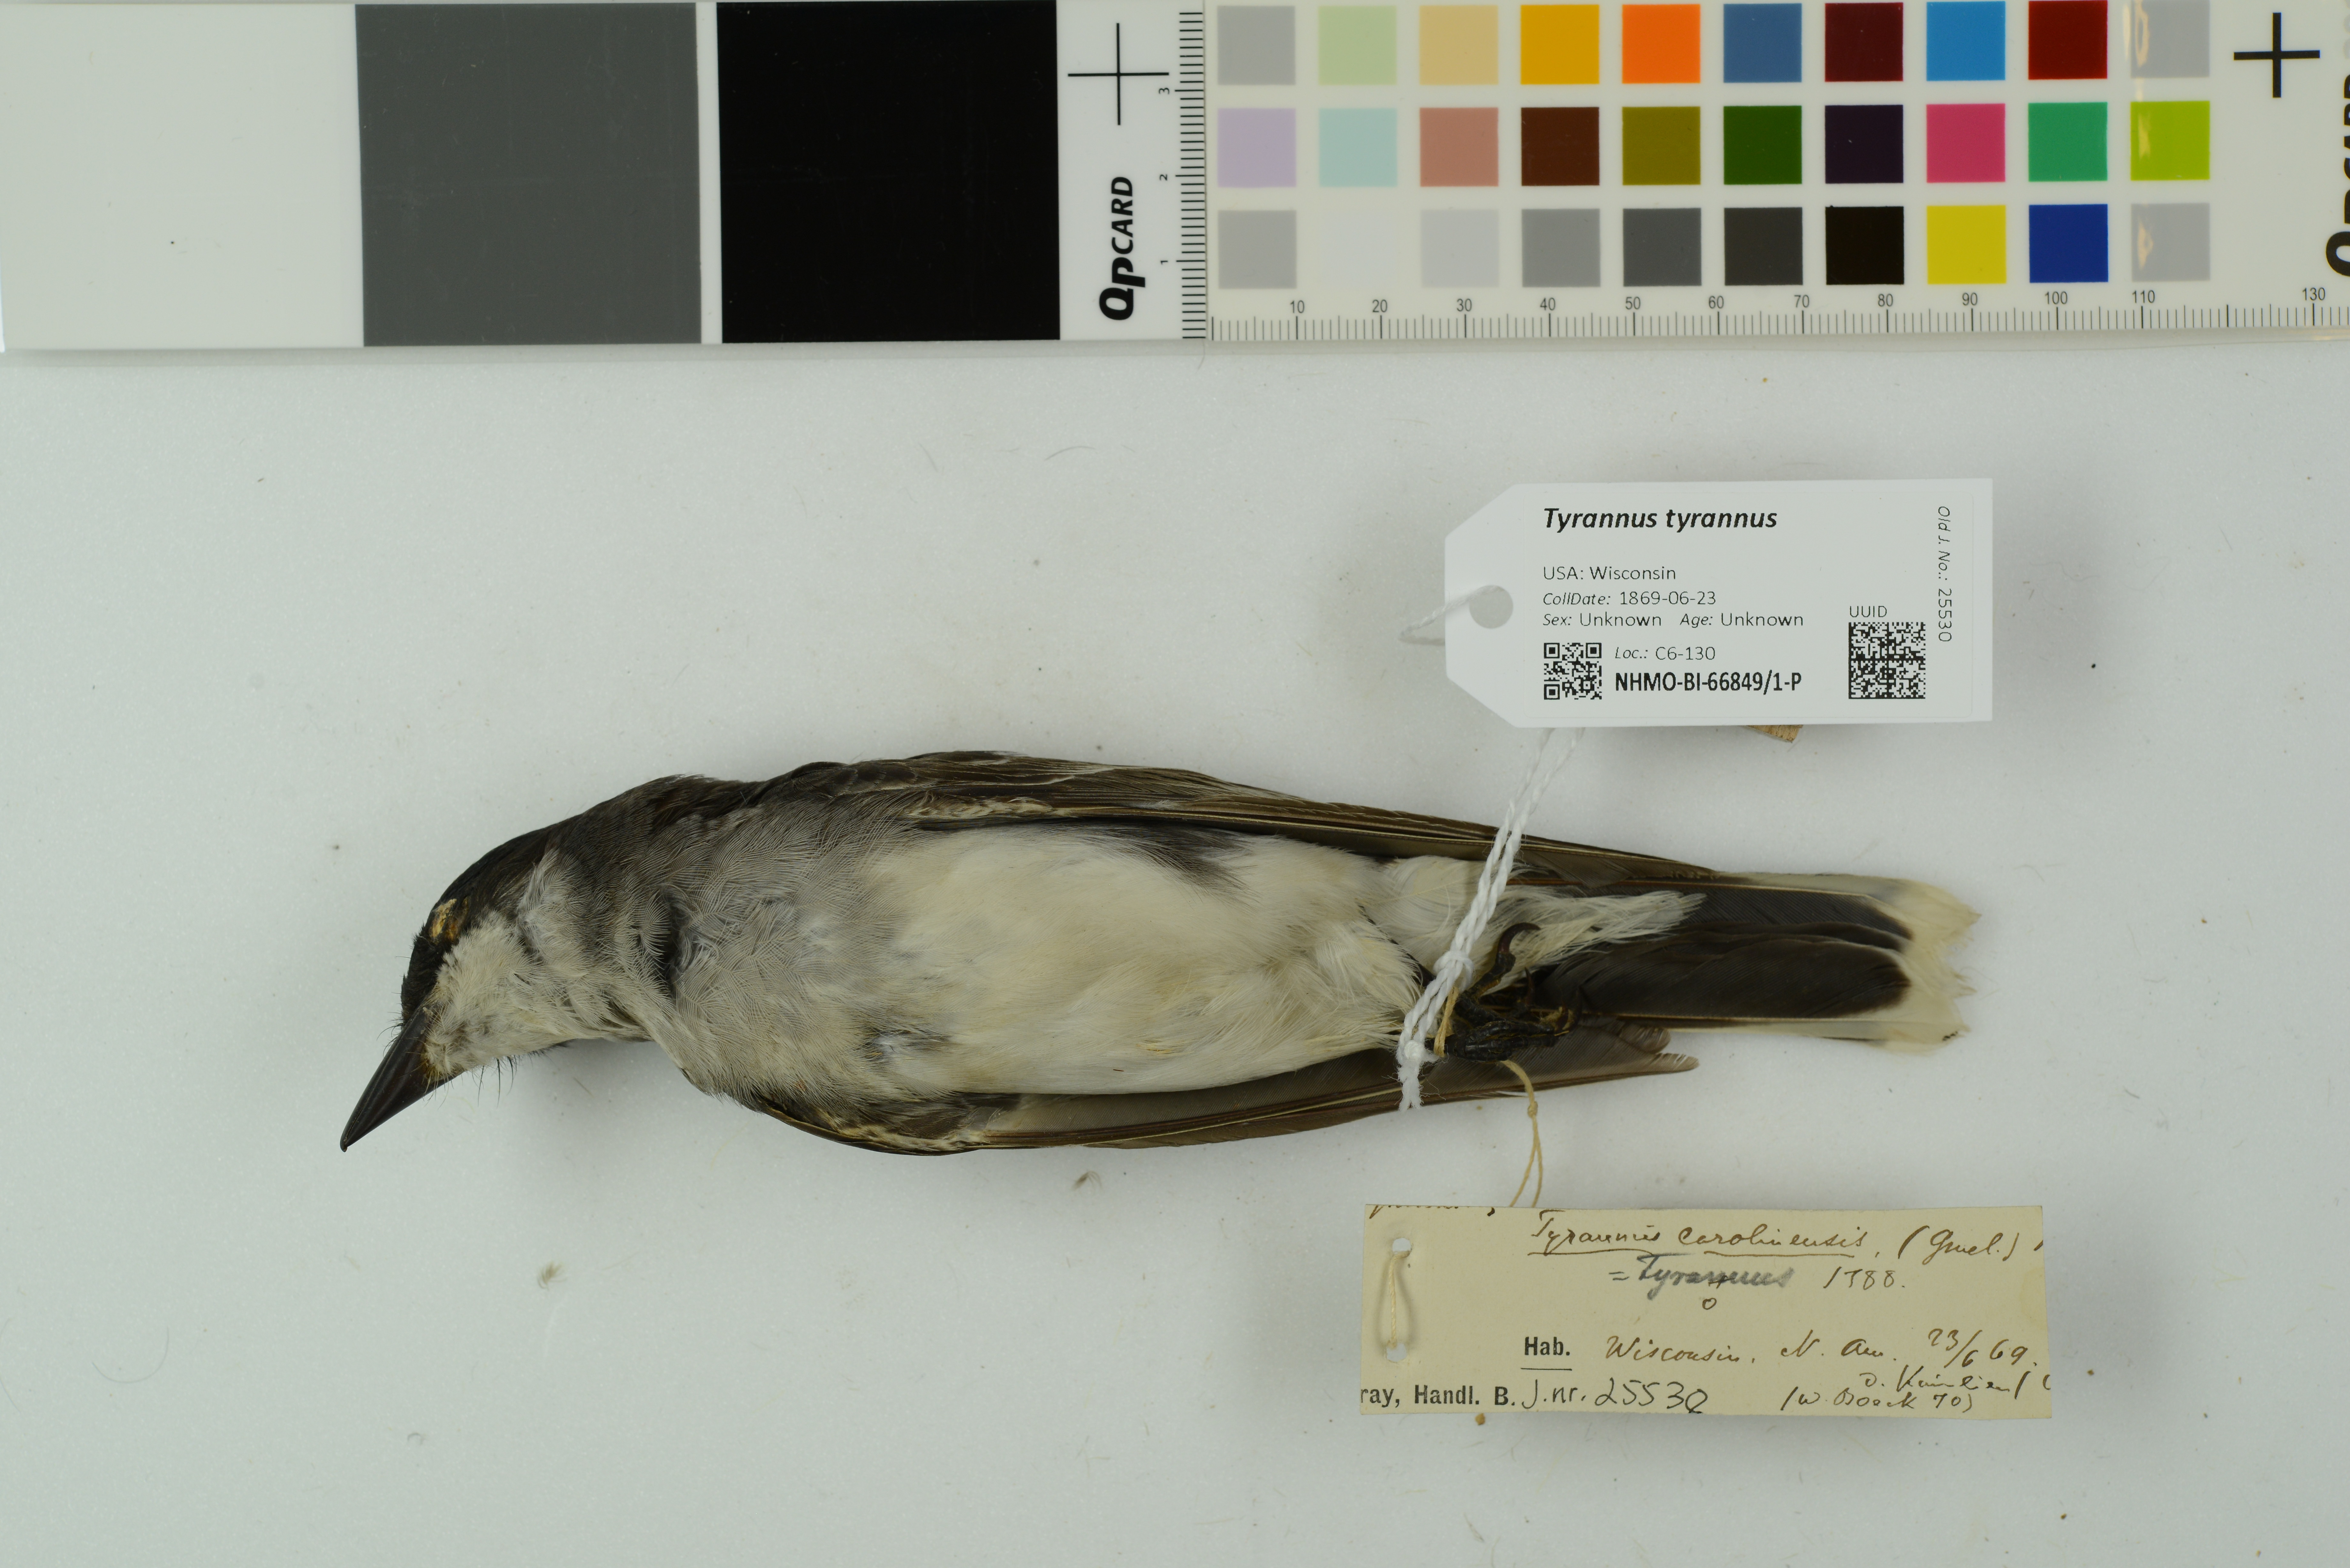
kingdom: Animalia
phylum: Chordata
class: Aves
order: Passeriformes
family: Tyrannidae
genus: Tyrannus
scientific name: Tyrannus tyrannus
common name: Eastern kingbird
